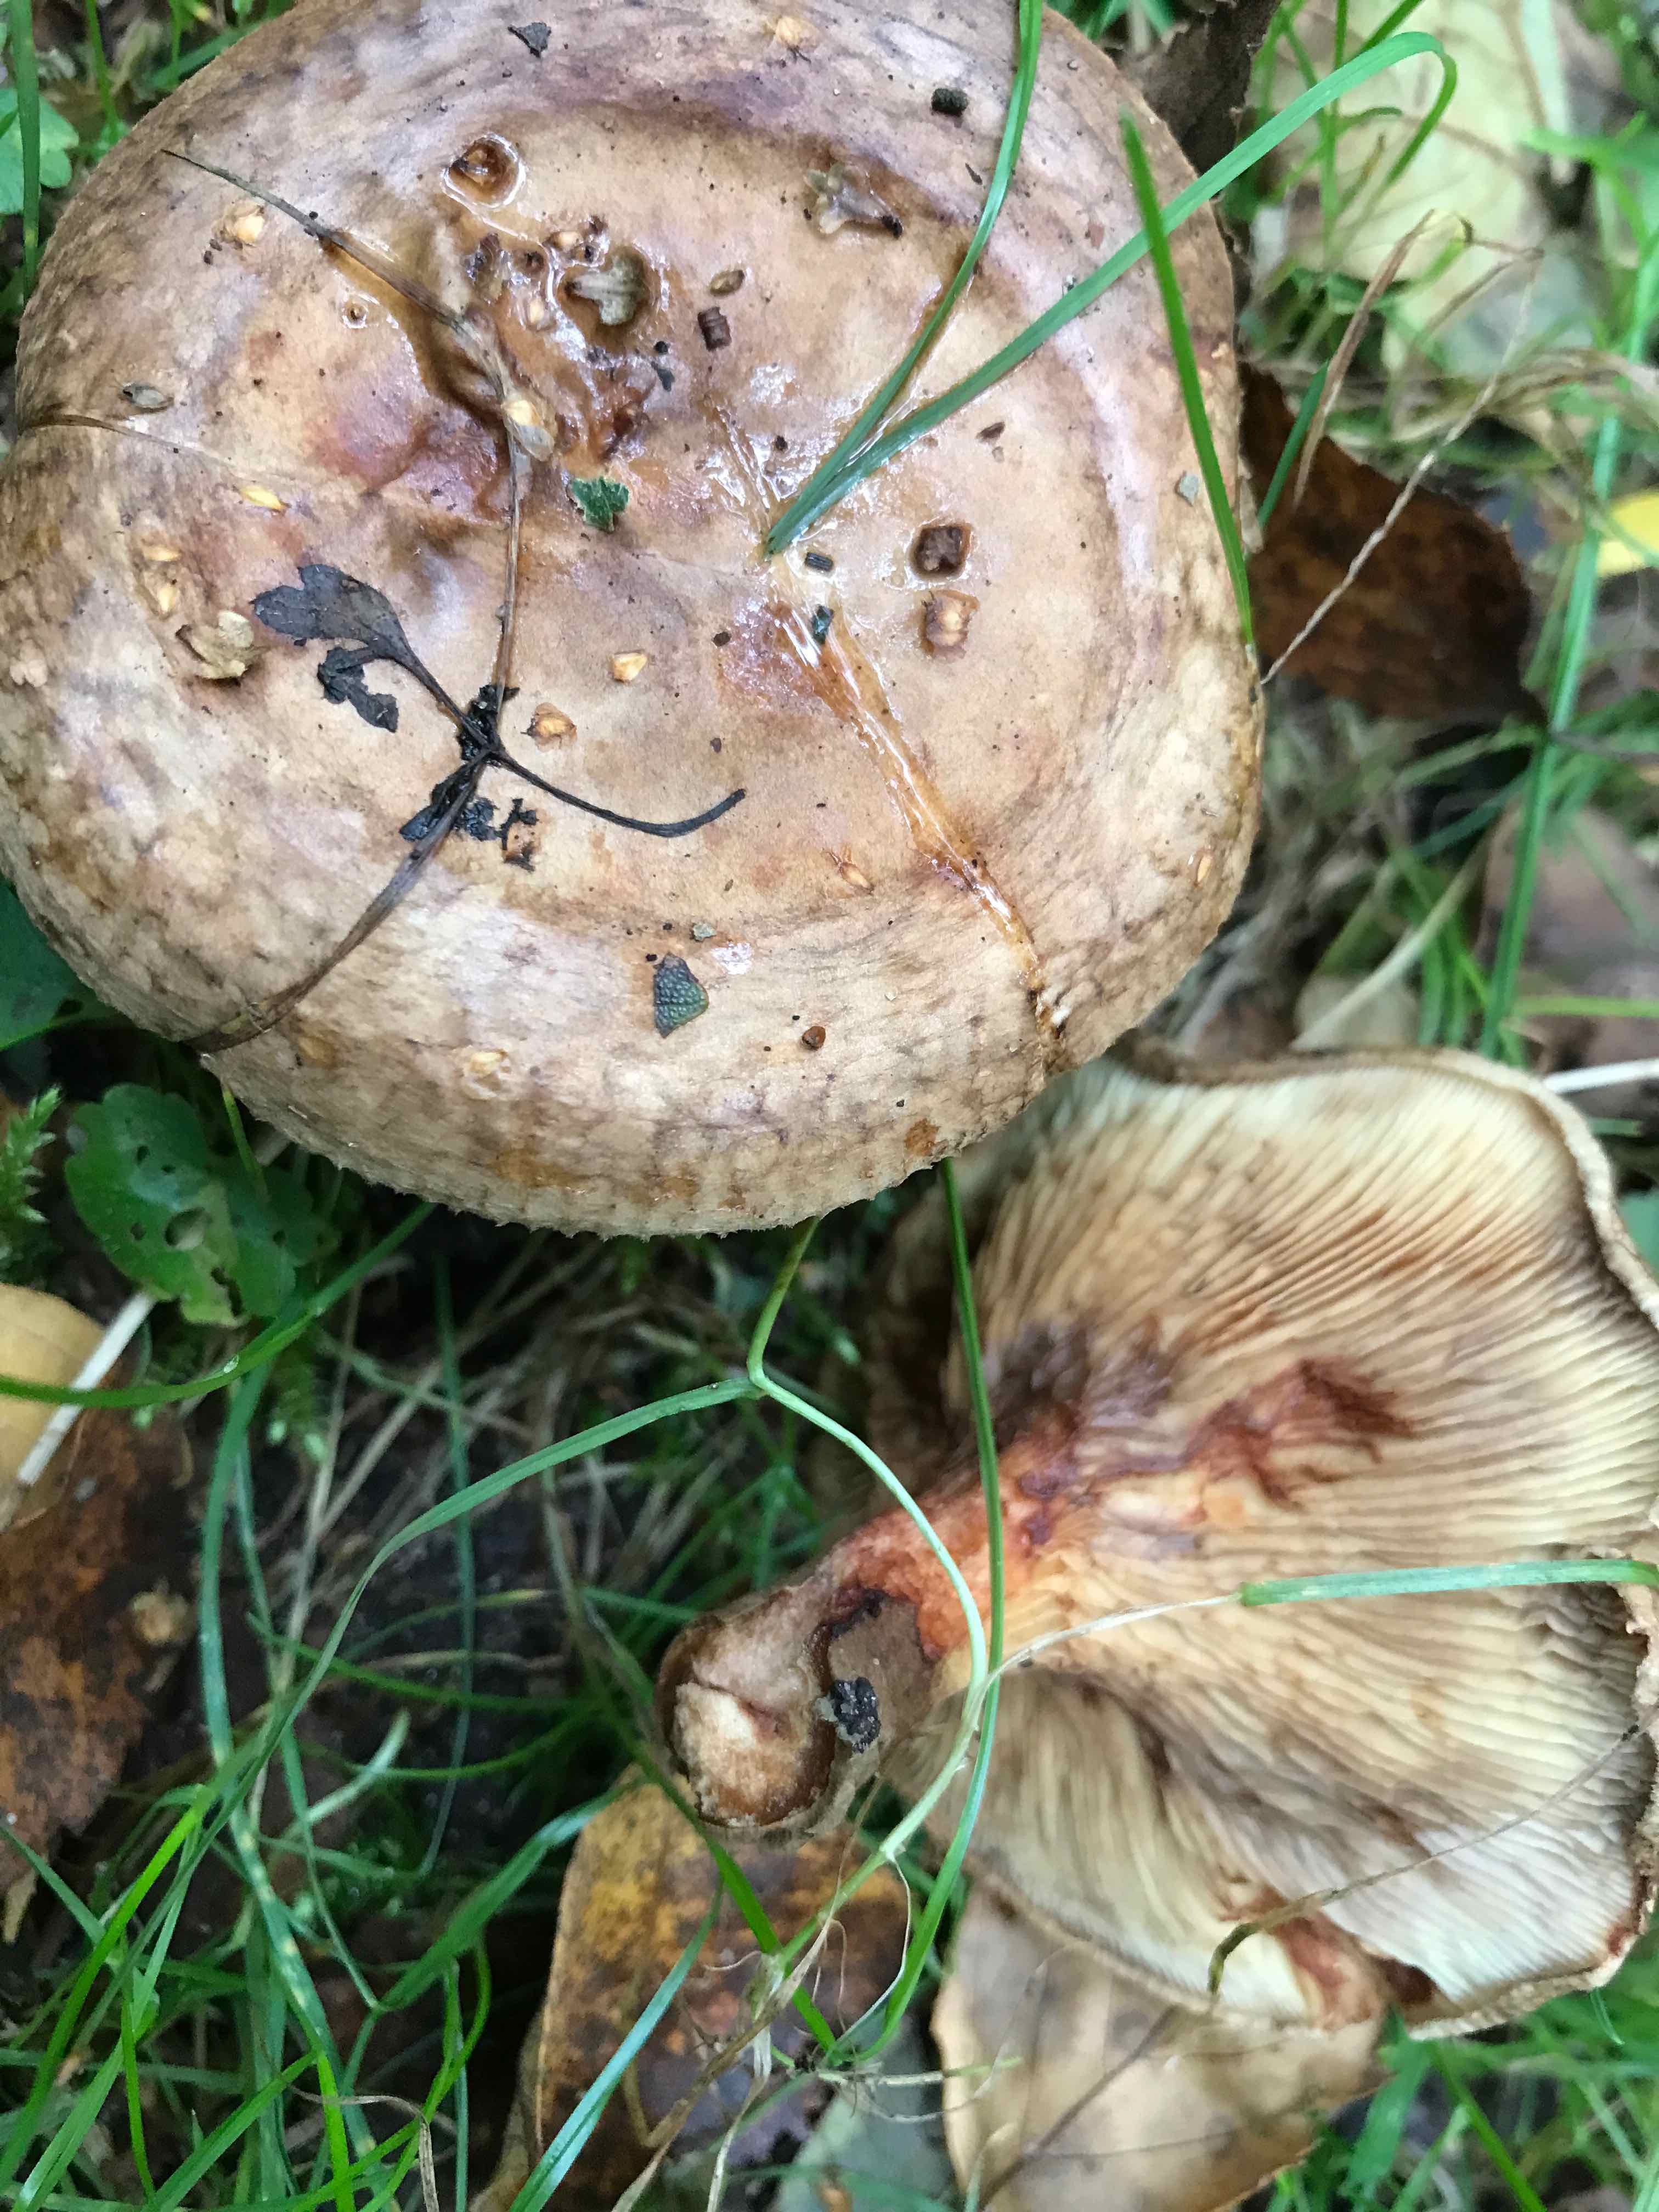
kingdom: Fungi
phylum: Basidiomycota
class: Agaricomycetes
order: Boletales
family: Paxillaceae
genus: Paxillus
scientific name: Paxillus
